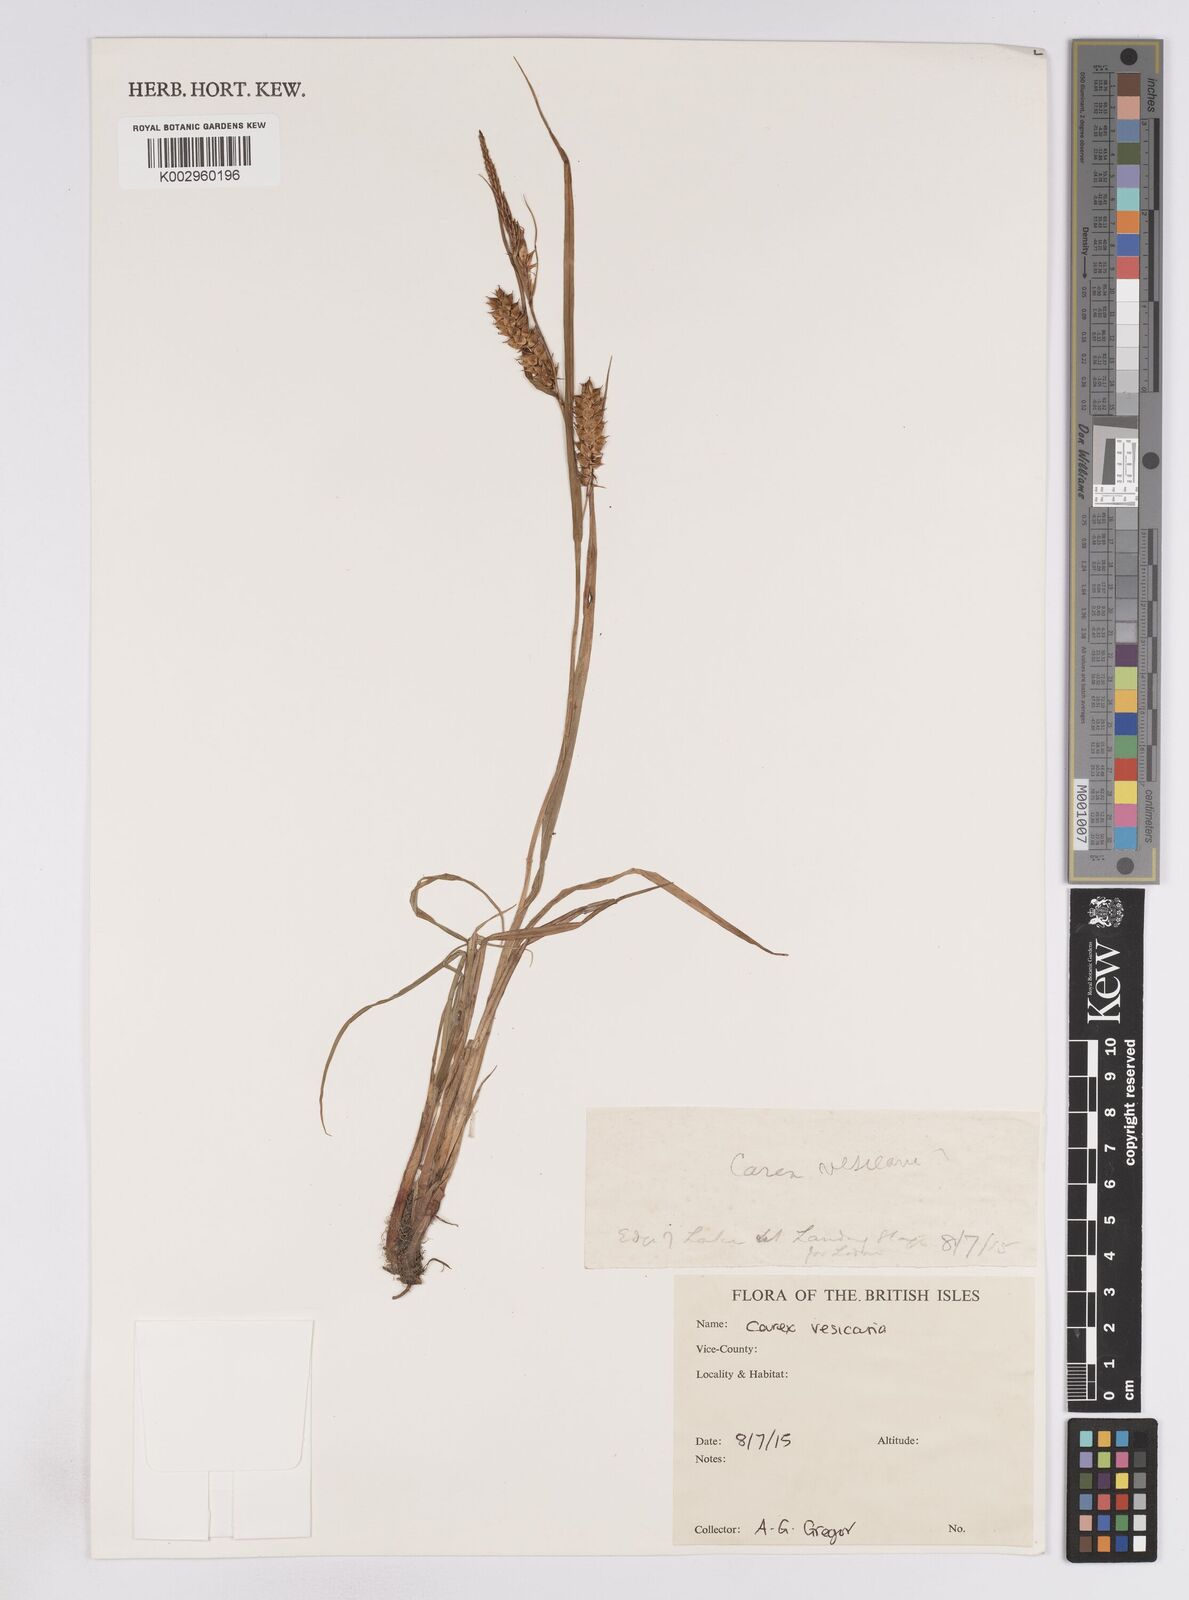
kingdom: Plantae
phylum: Tracheophyta
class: Liliopsida
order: Poales
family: Cyperaceae
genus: Carex
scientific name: Carex vesicaria
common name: Bladder-sedge
